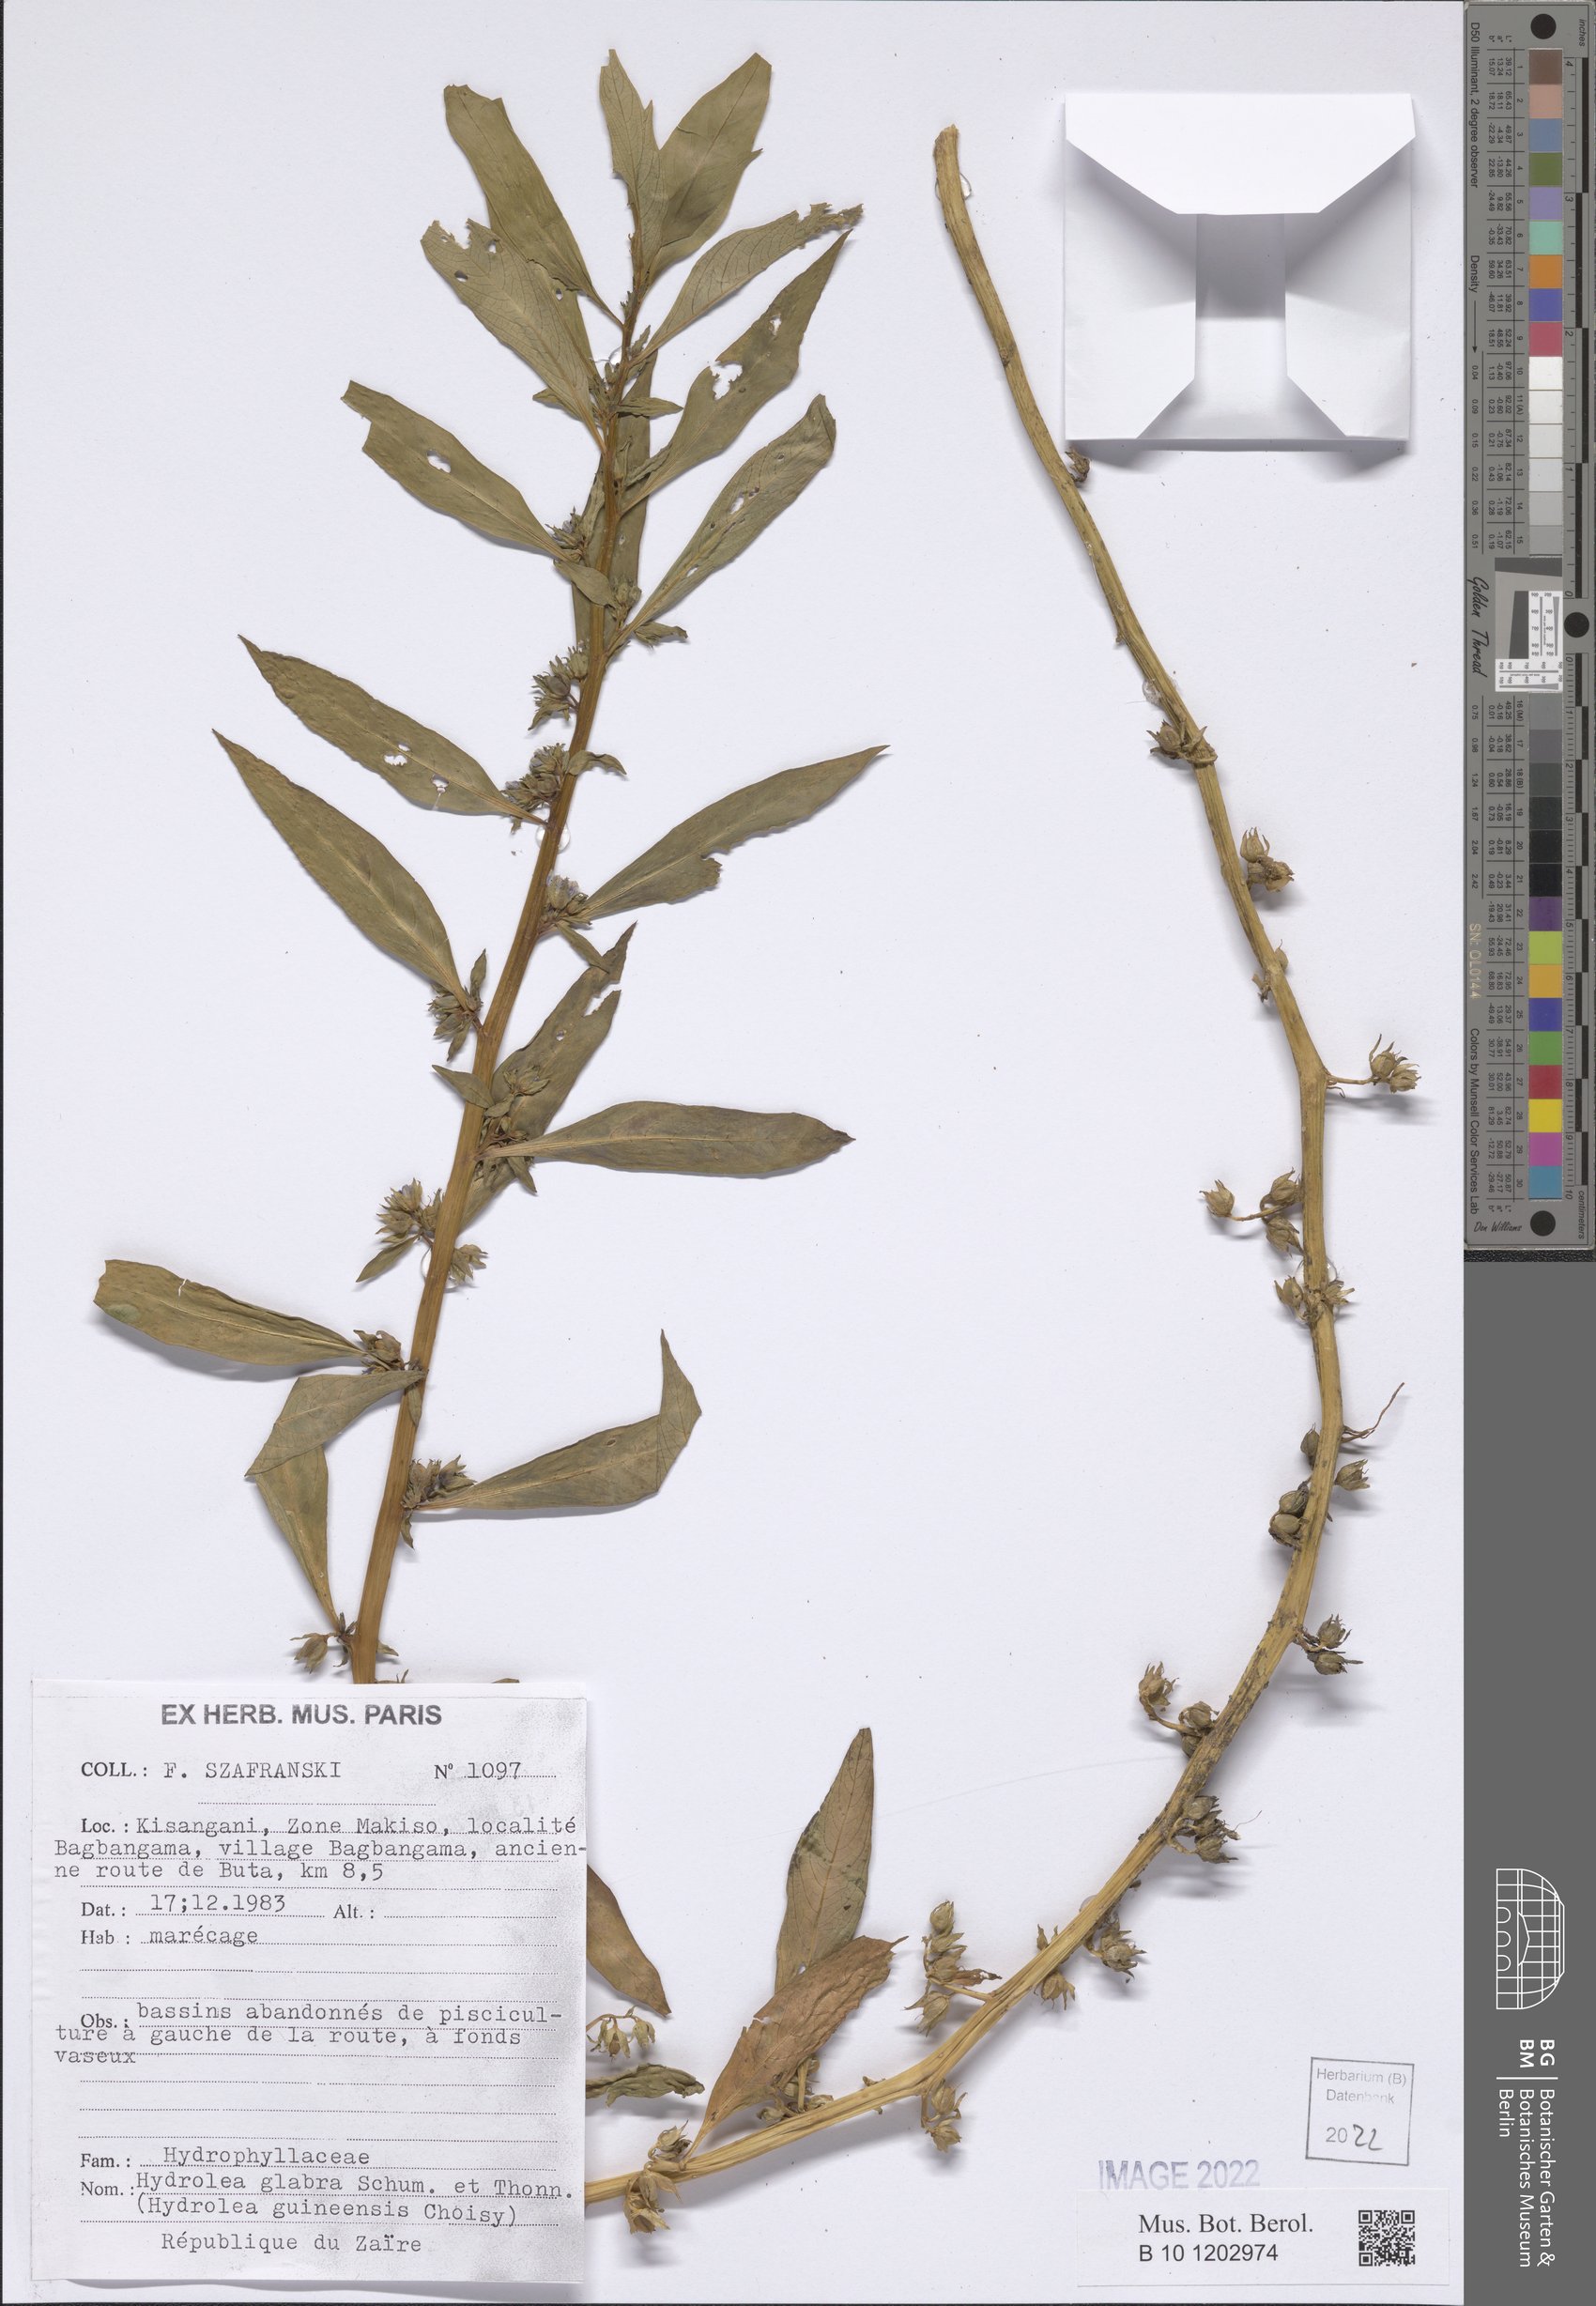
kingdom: Plantae
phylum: Tracheophyta
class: Magnoliopsida
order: Solanales
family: Hydroleaceae
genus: Hydrolea
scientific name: Hydrolea palustris
